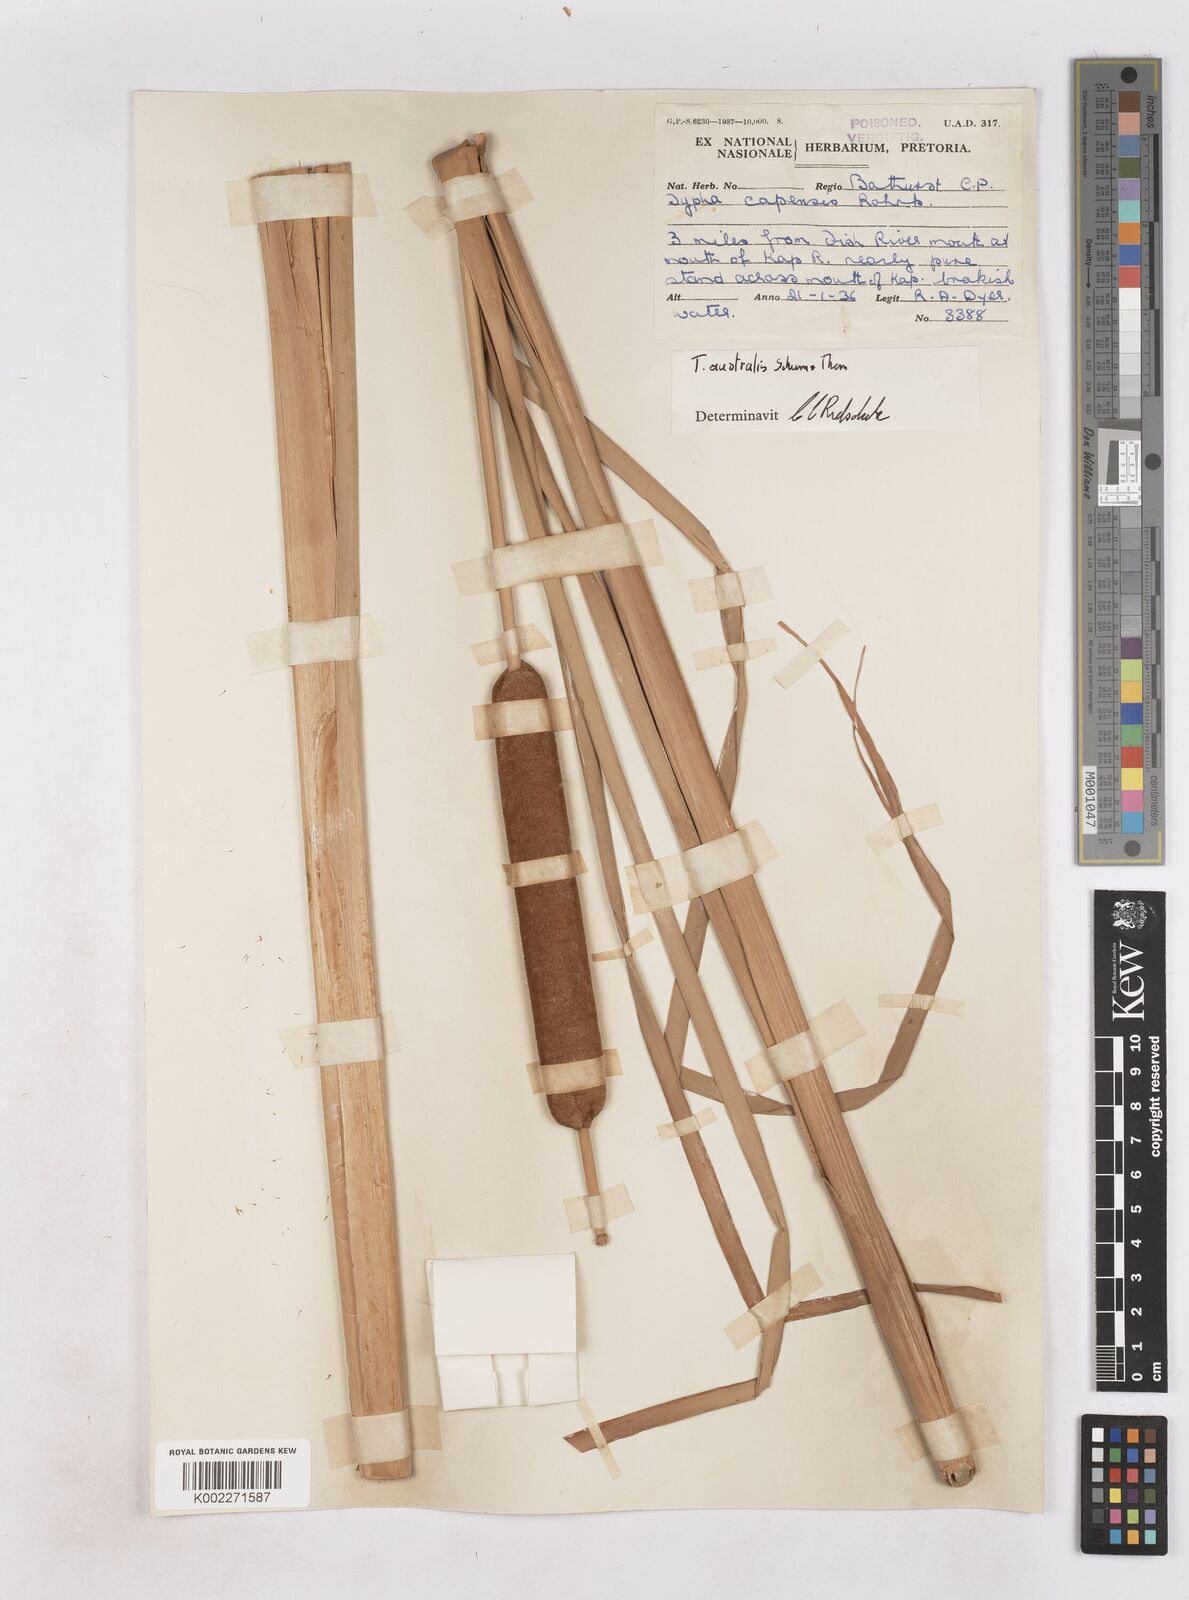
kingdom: Plantae
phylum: Tracheophyta
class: Liliopsida
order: Poales
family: Typhaceae
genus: Typha
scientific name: Typha domingensis
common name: Southern cattail
